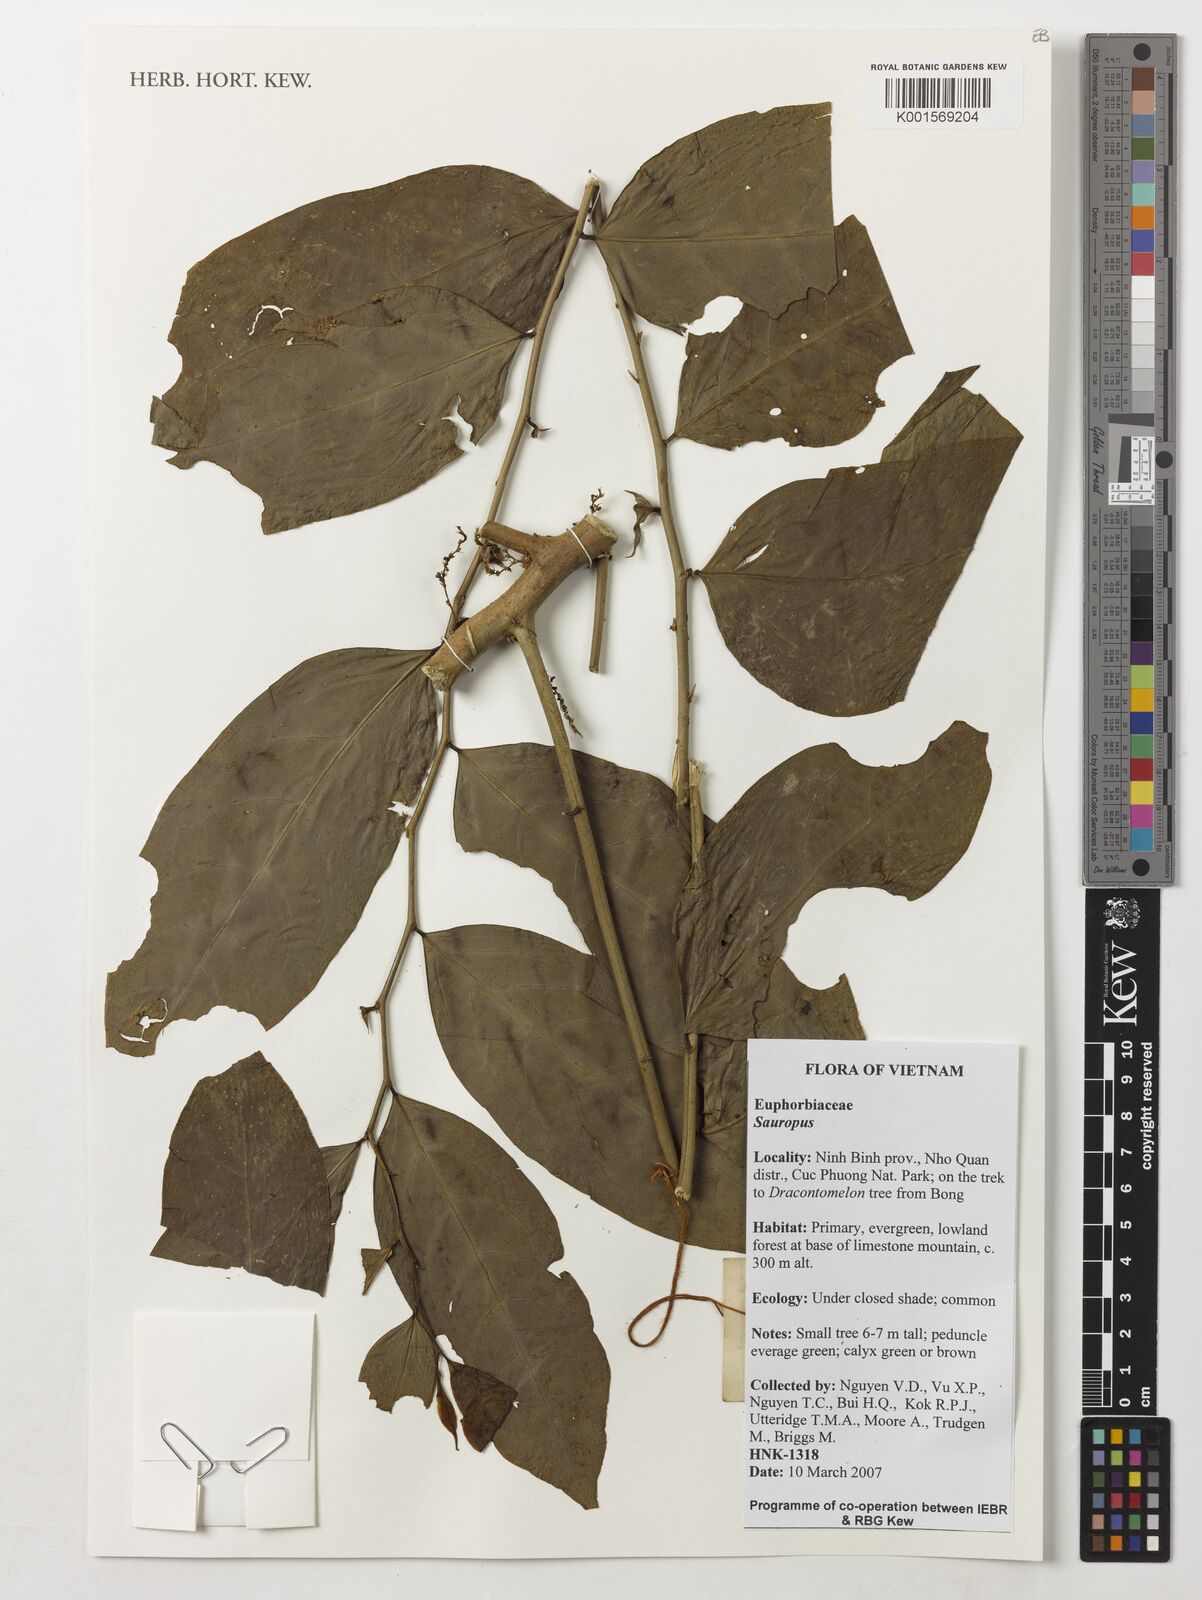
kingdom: Animalia
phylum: Chordata
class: Amphibia
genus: Sauropus
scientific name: Sauropus
